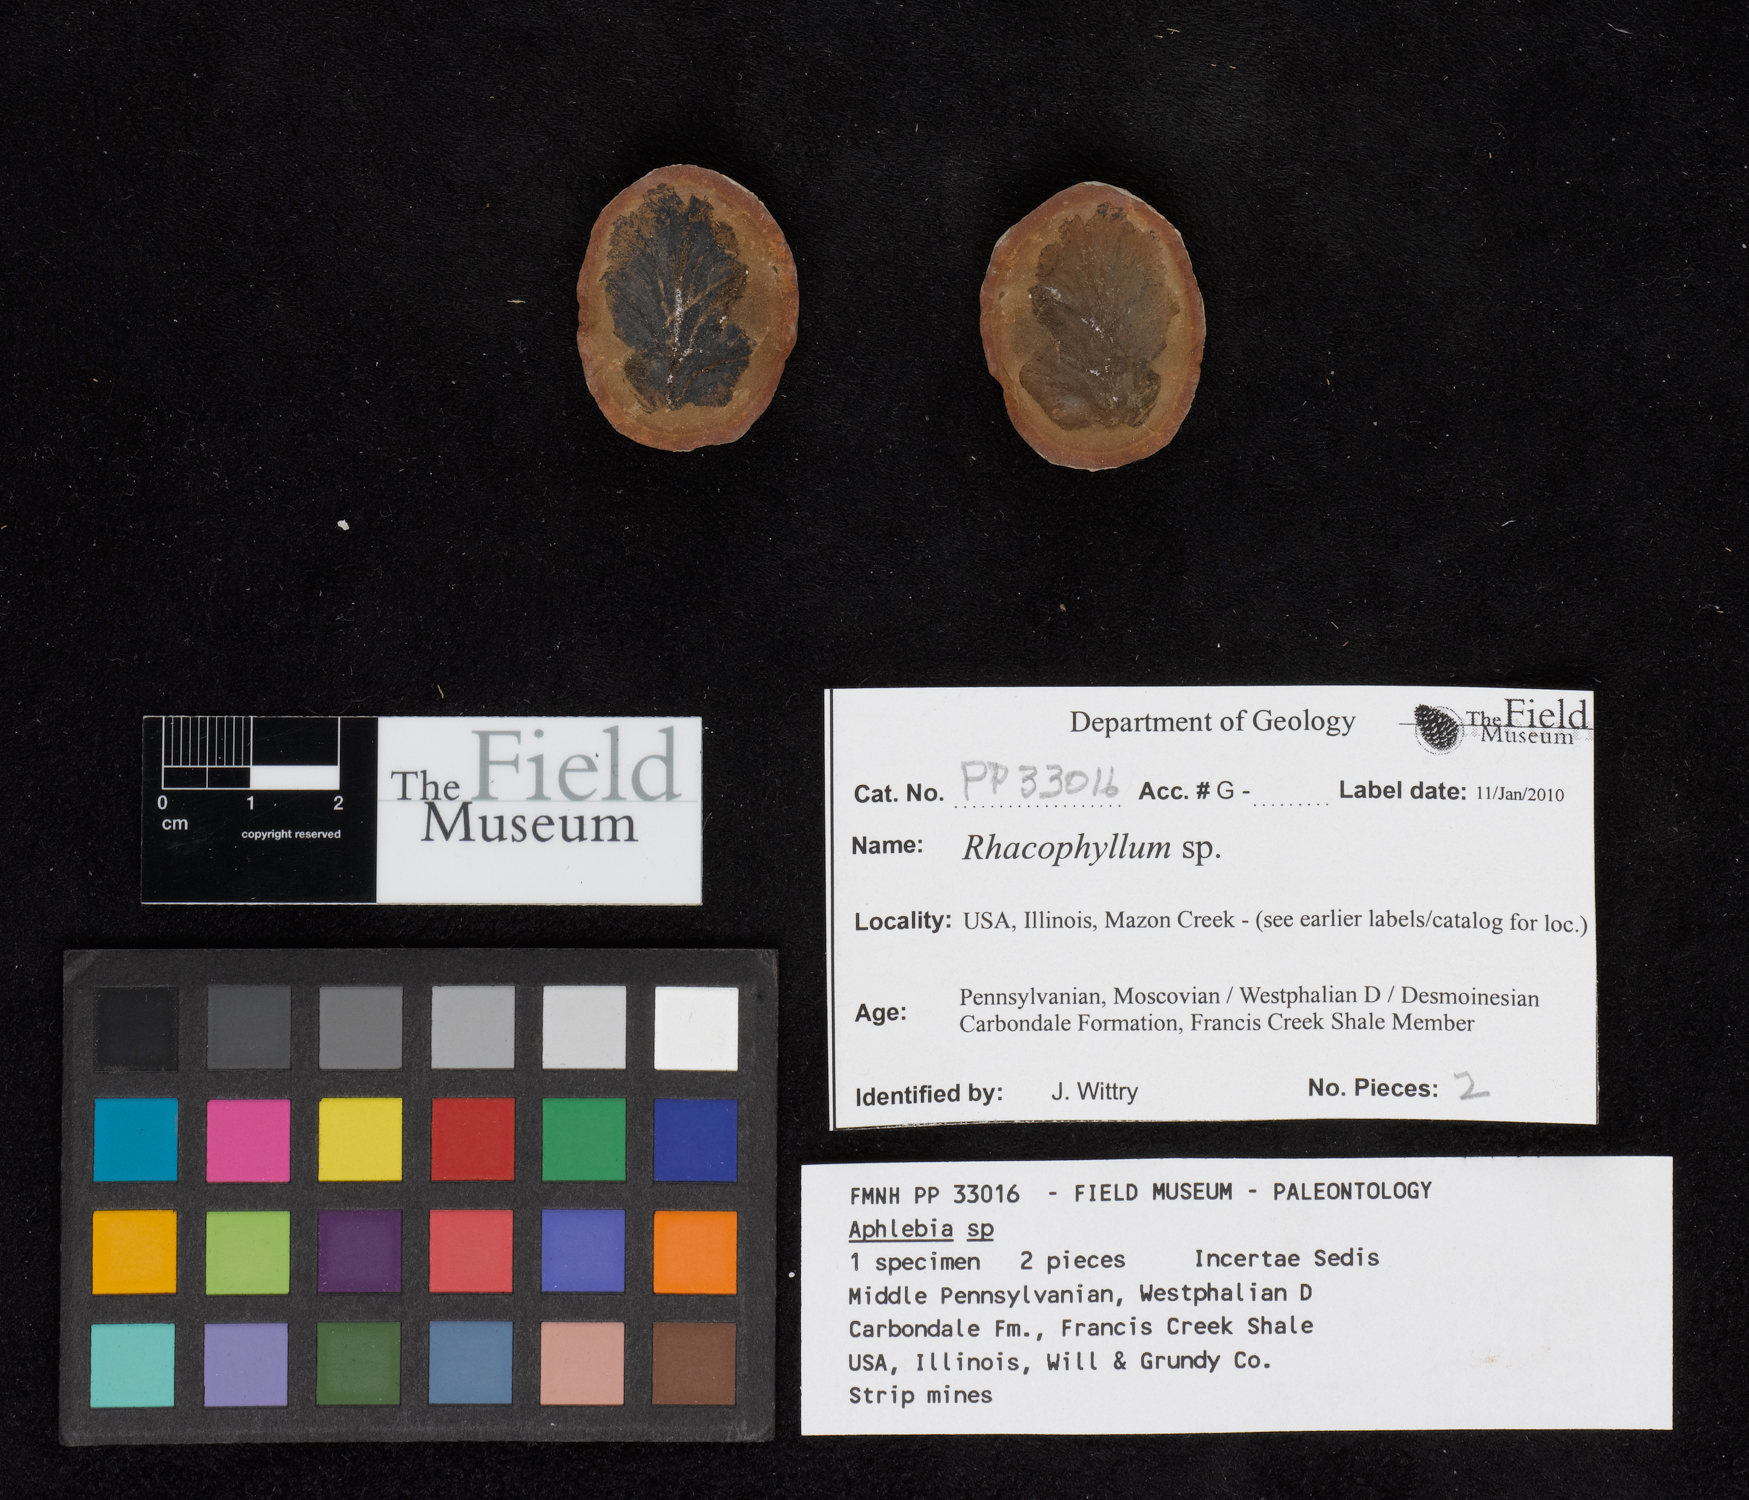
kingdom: Plantae
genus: Rhacophyllum
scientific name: Rhacophyllum
